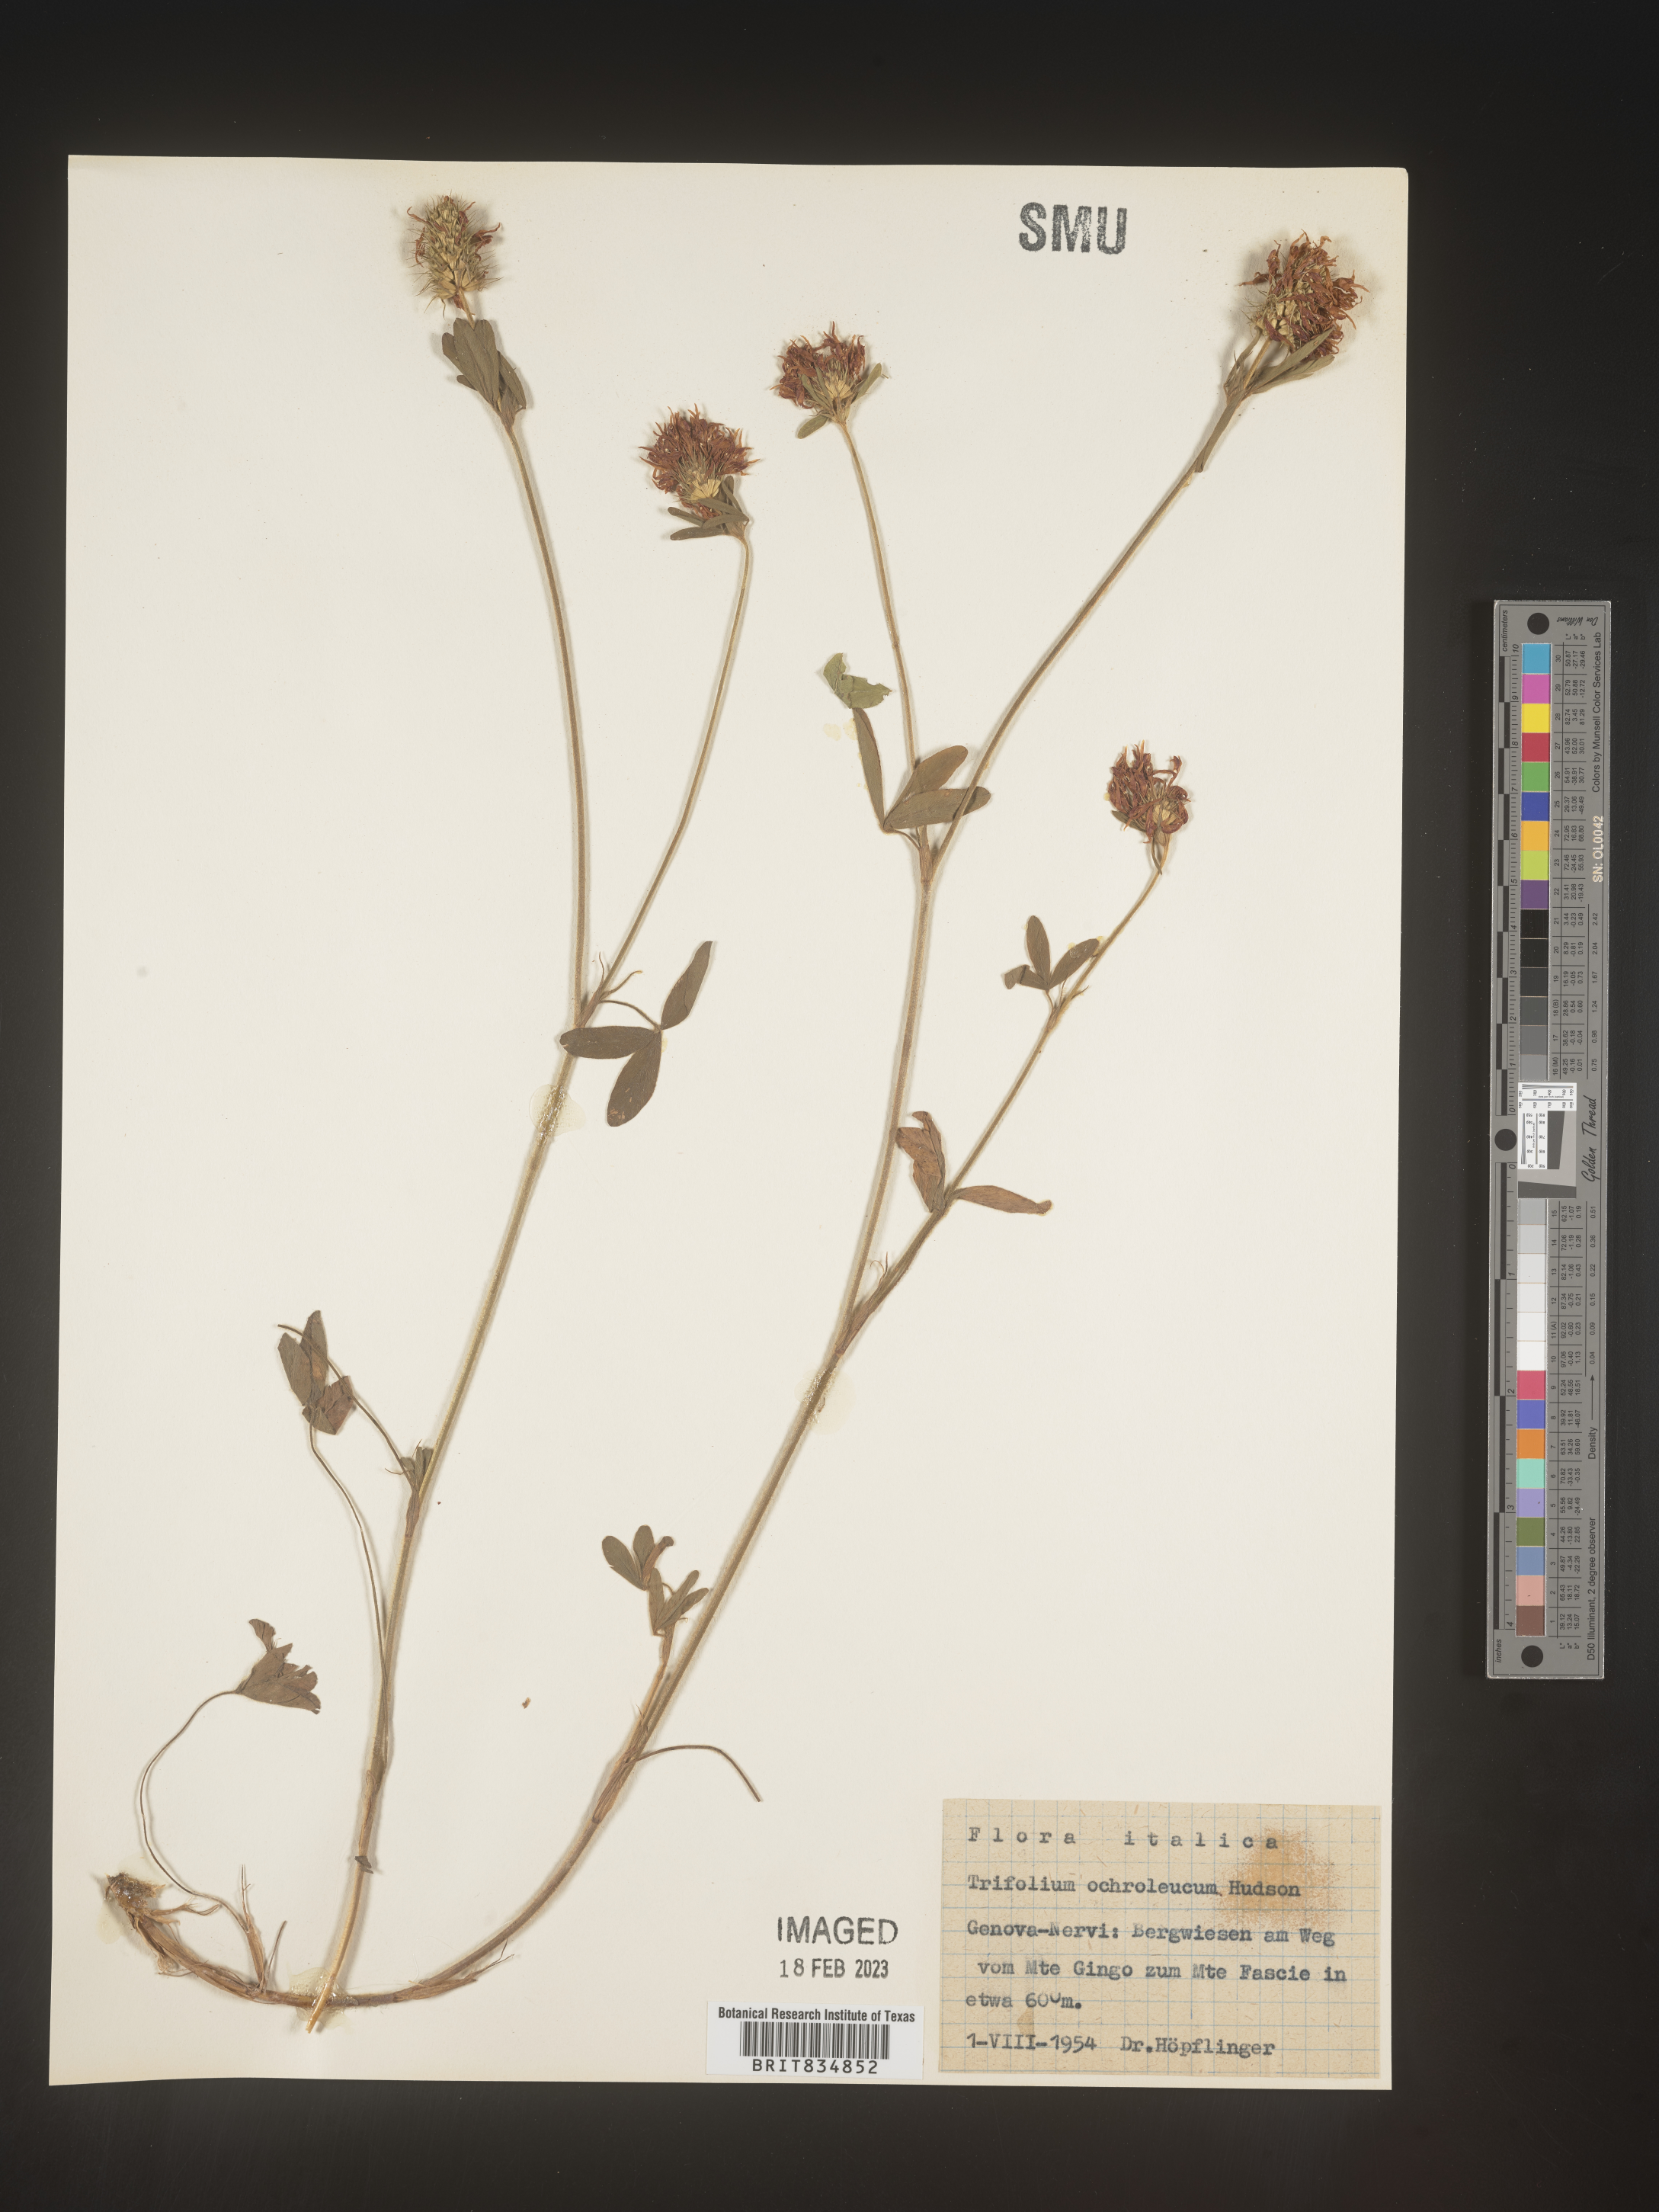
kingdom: Plantae
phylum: Tracheophyta
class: Magnoliopsida
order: Fabales
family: Fabaceae
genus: Trifolium
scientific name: Trifolium
